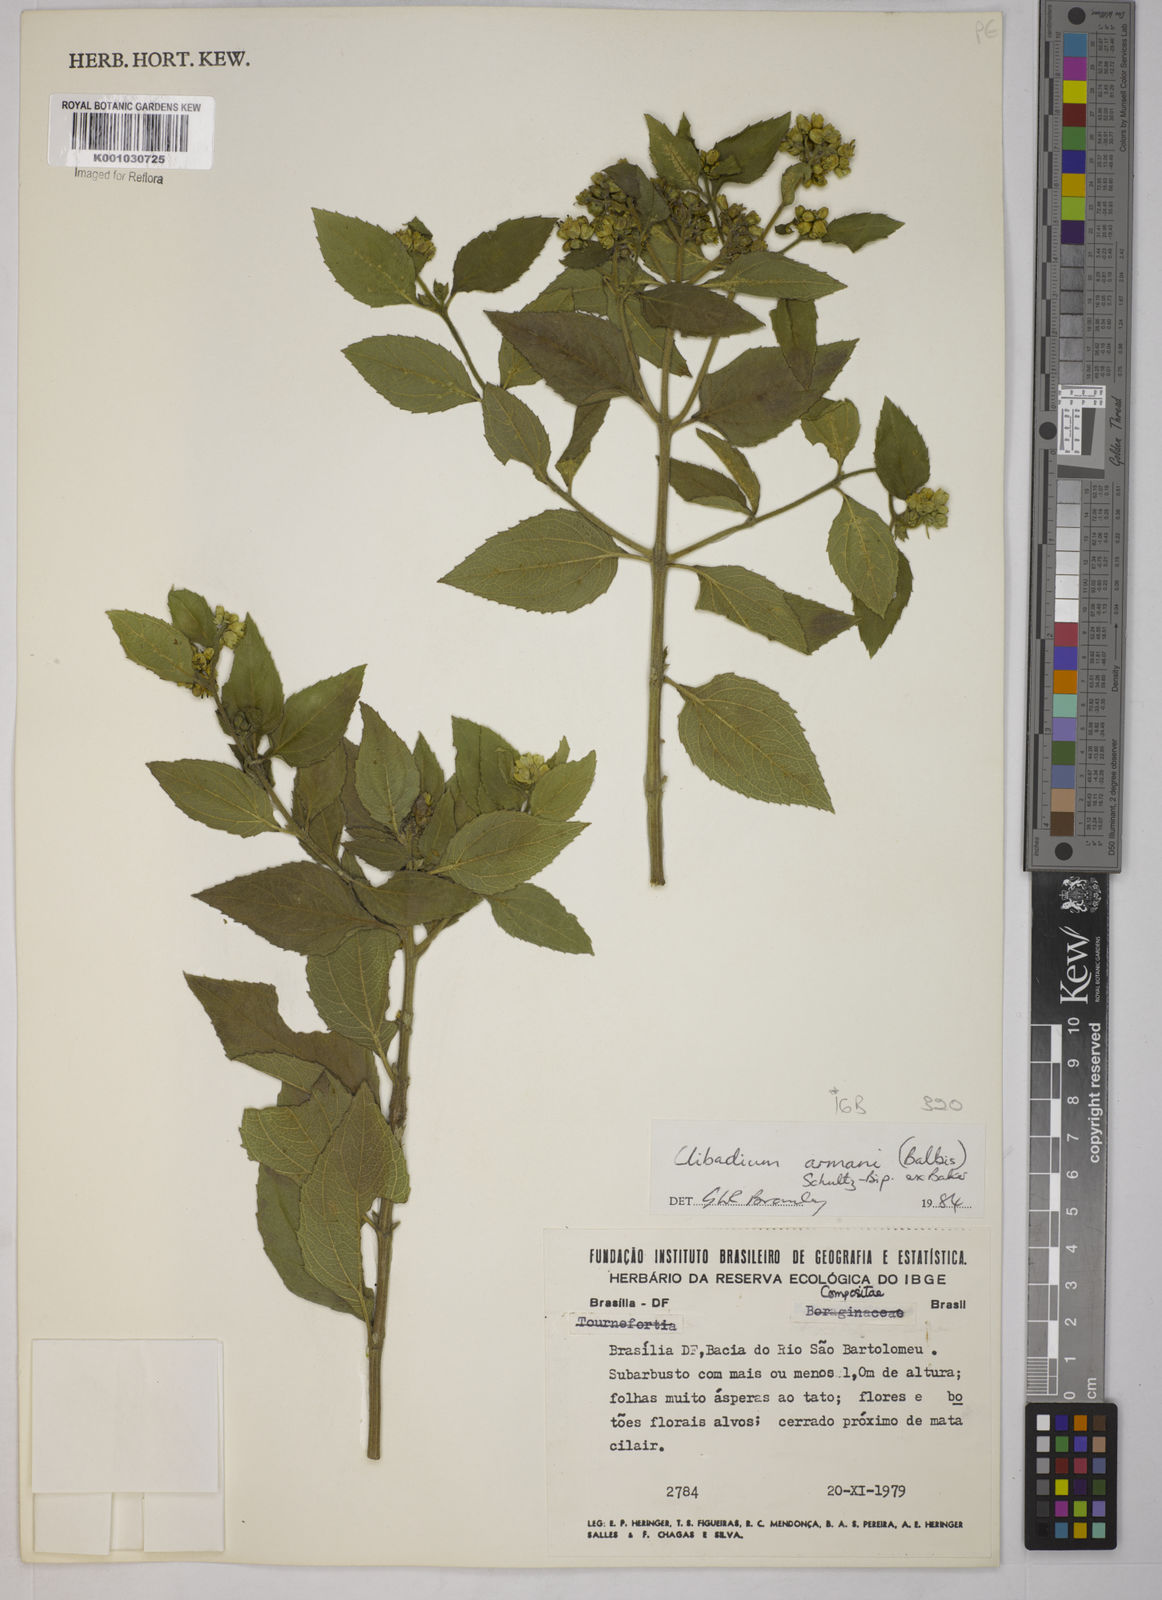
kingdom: Plantae
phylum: Tracheophyta
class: Magnoliopsida
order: Asterales
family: Asteraceae
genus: Clibadium
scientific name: Clibadium armanii
